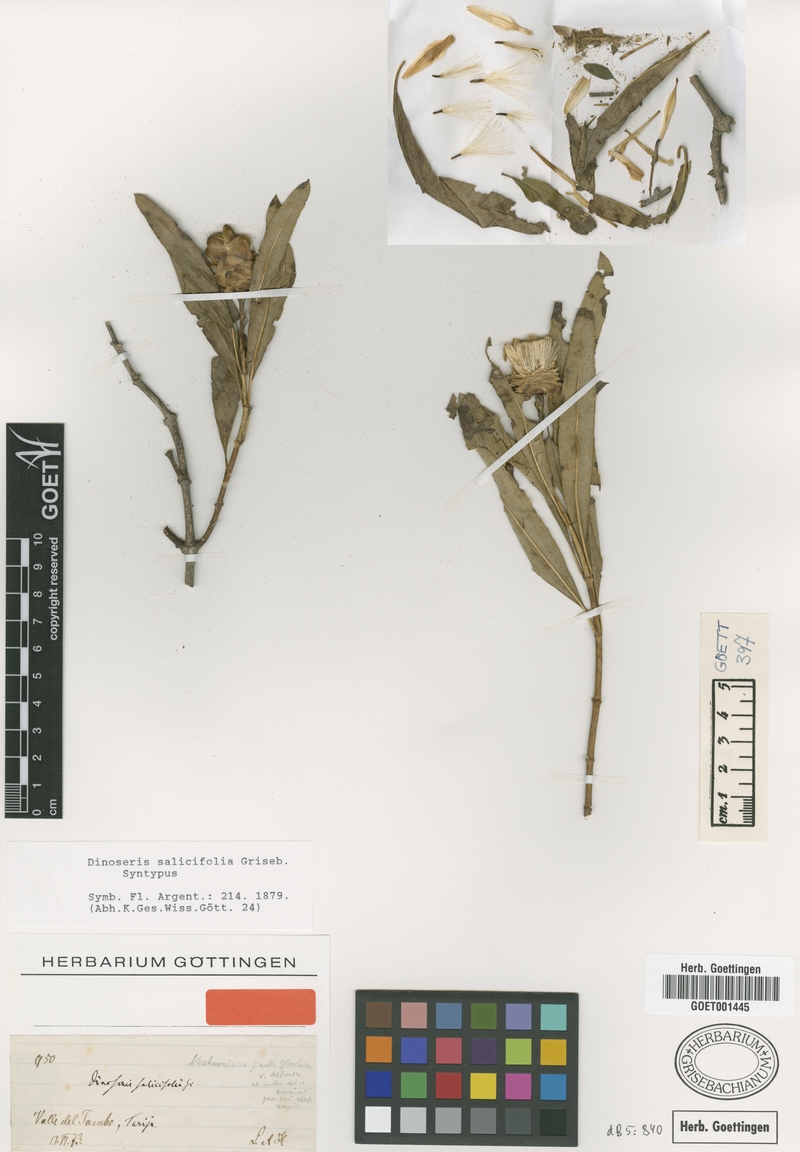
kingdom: Plantae
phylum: Tracheophyta
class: Magnoliopsida
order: Asterales
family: Asteraceae
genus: Hyaloseris
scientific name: Hyaloseris salicifolia
